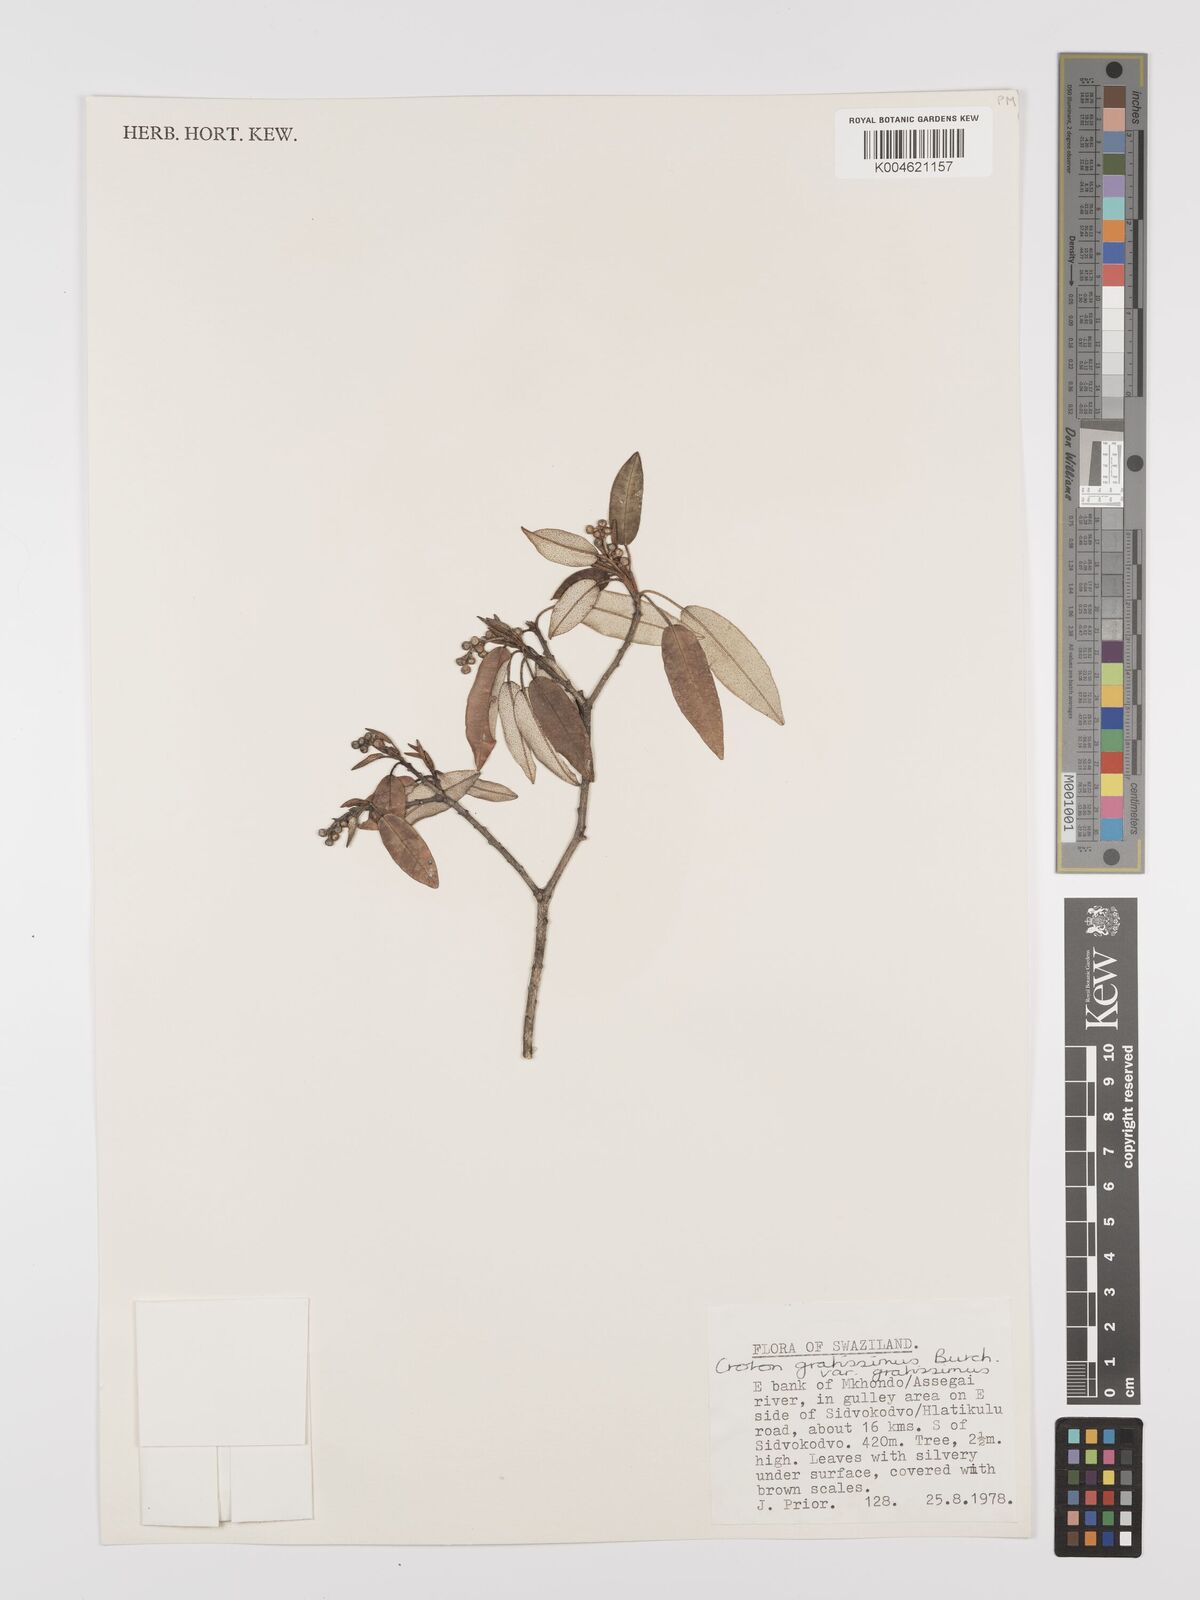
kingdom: Plantae
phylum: Tracheophyta
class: Magnoliopsida
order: Malpighiales
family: Euphorbiaceae
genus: Croton
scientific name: Croton gratissimus
